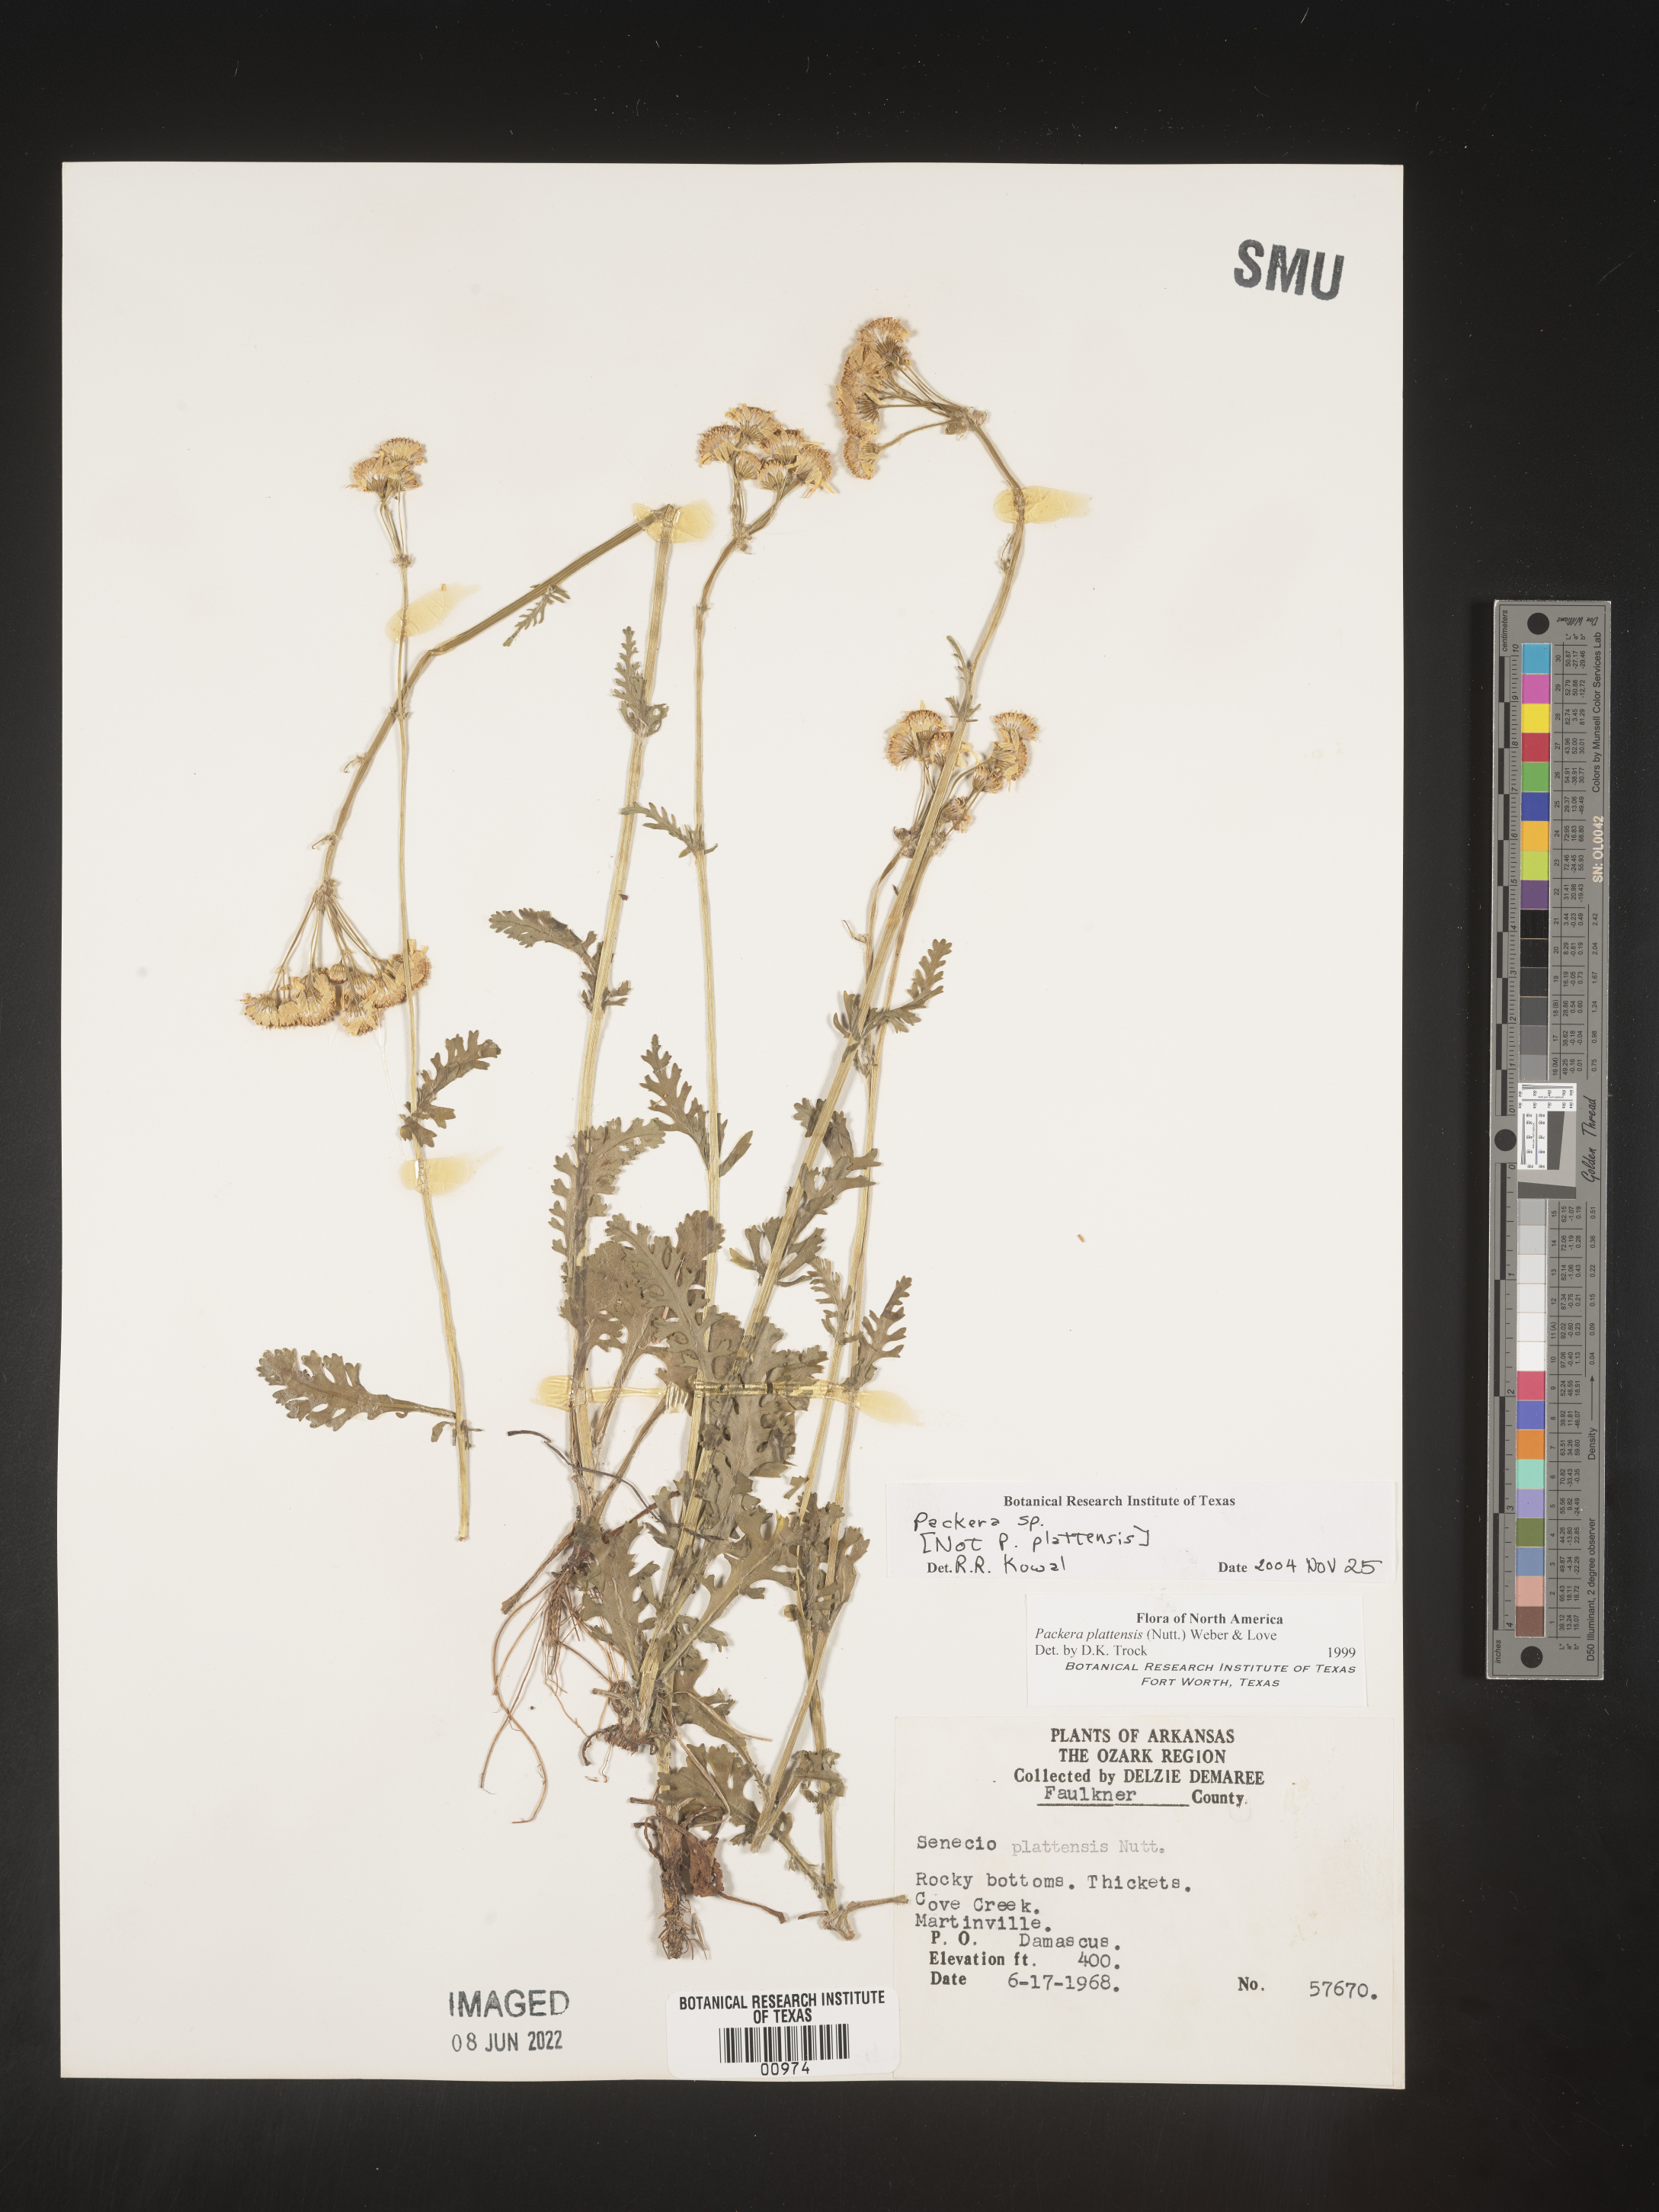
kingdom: Plantae
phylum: Tracheophyta
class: Magnoliopsida
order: Asterales
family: Asteraceae
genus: Packera
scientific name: Packera
